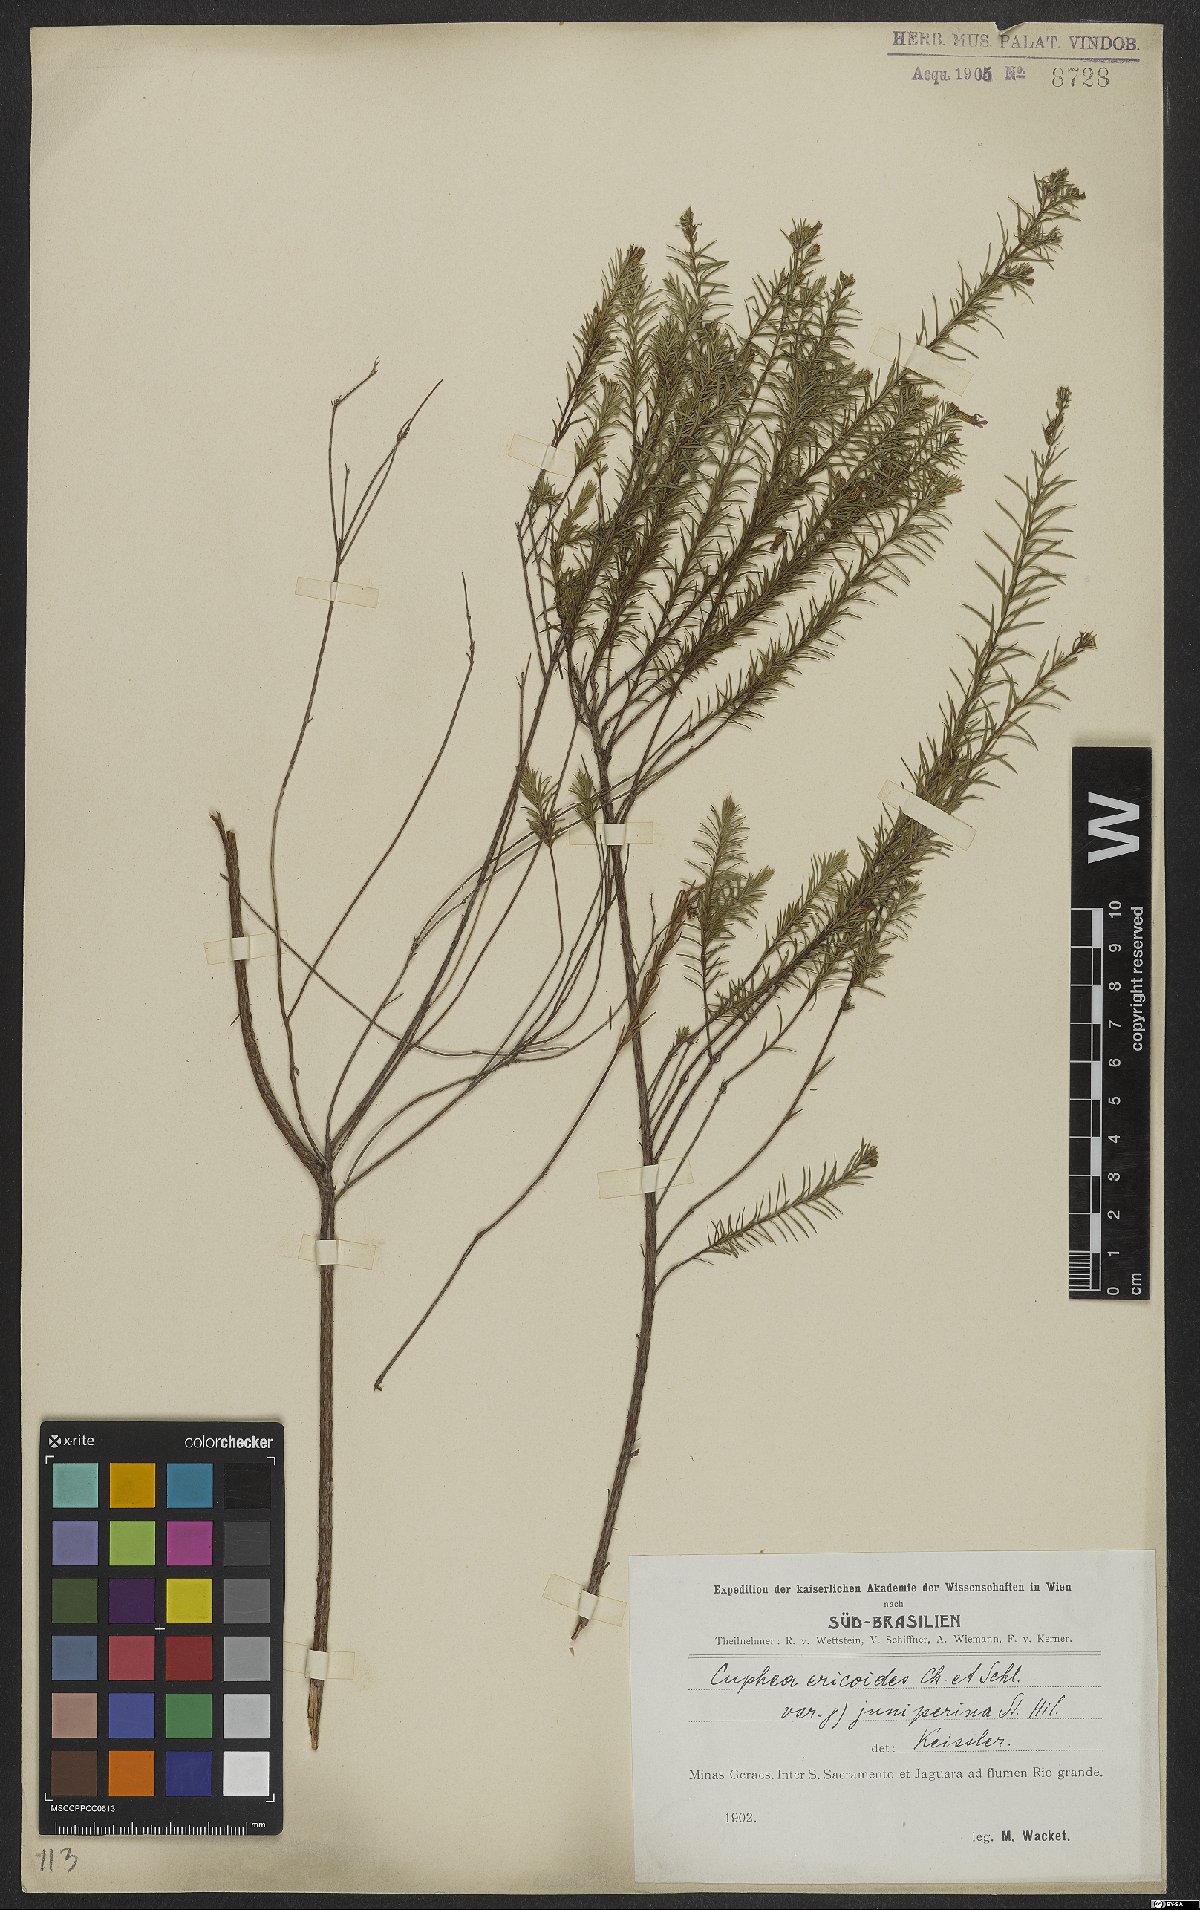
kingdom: Plantae
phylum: Tracheophyta
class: Magnoliopsida
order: Myrtales
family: Lythraceae
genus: Cuphea
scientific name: Cuphea ericoides
